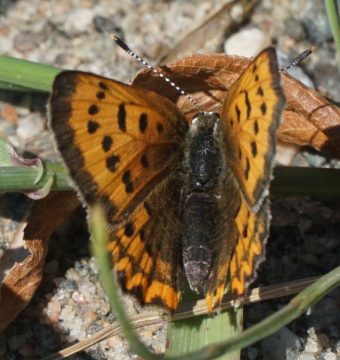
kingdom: Animalia
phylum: Arthropoda
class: Insecta
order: Lepidoptera
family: Sesiidae
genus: Sesia
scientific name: Sesia Lycaena helloides
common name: Purplish Copper
